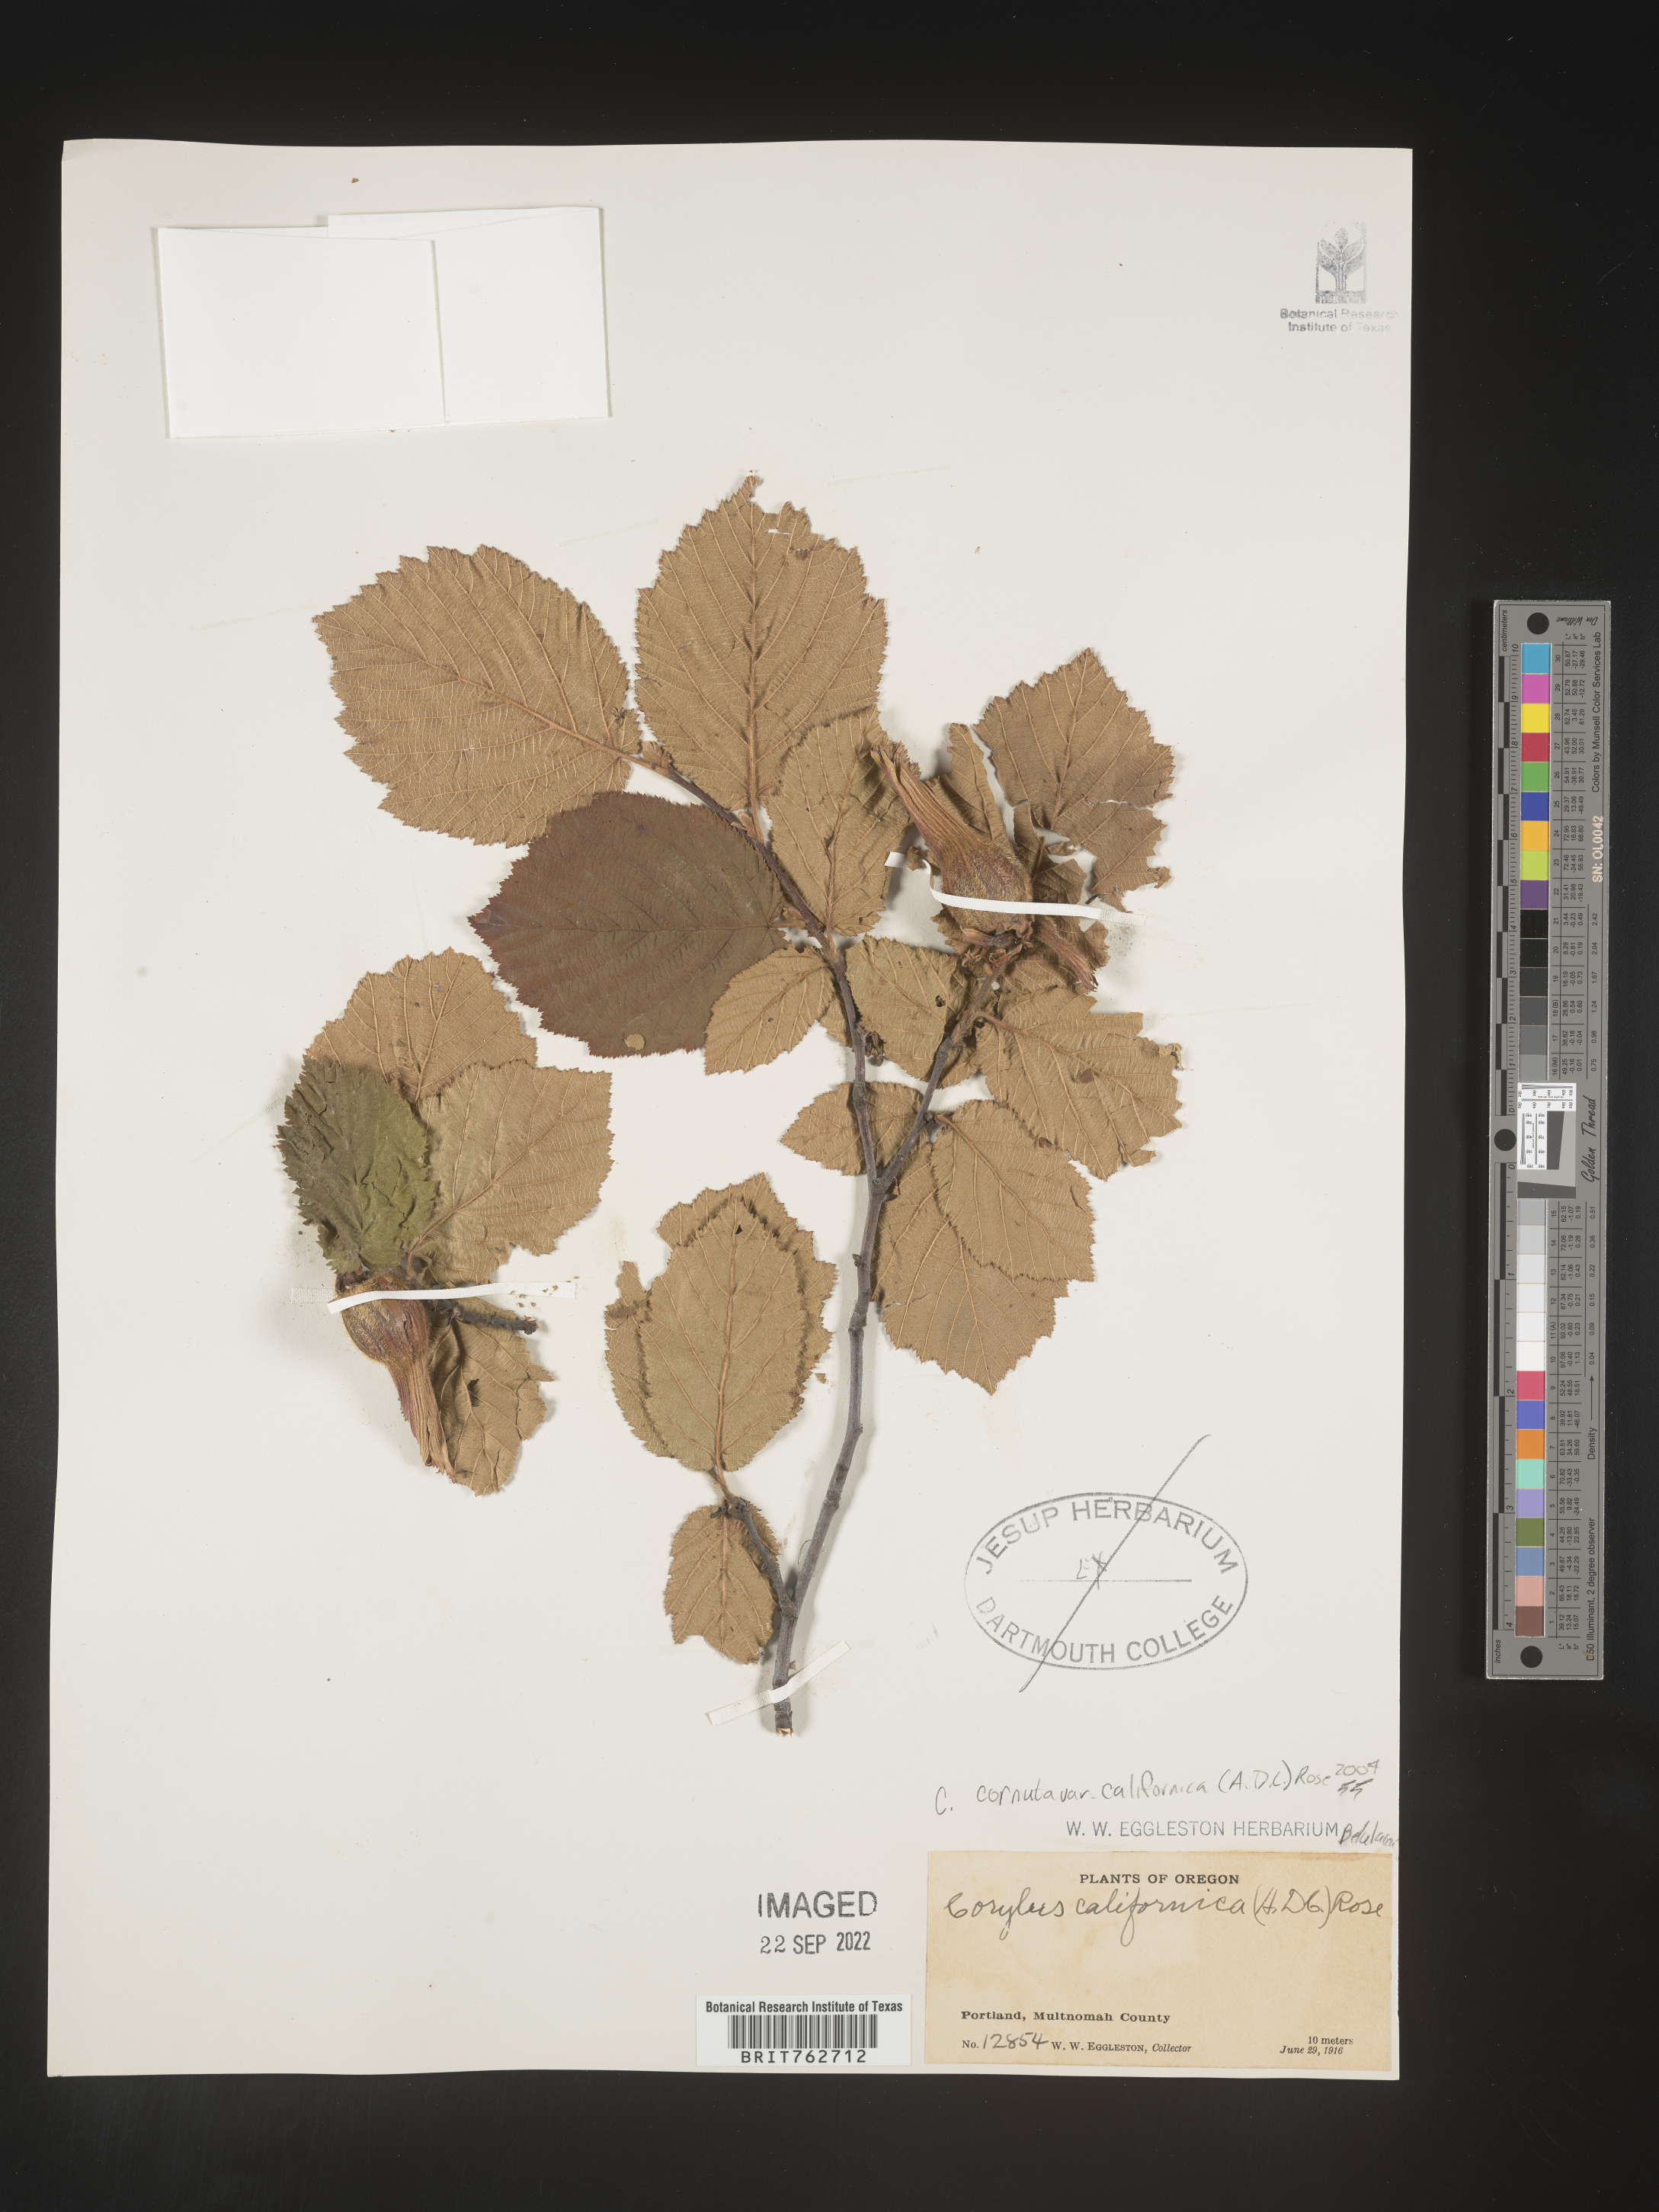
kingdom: Plantae
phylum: Tracheophyta
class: Magnoliopsida
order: Fagales
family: Betulaceae
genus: Corylus
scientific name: Corylus cornuta
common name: Beaked hazel
